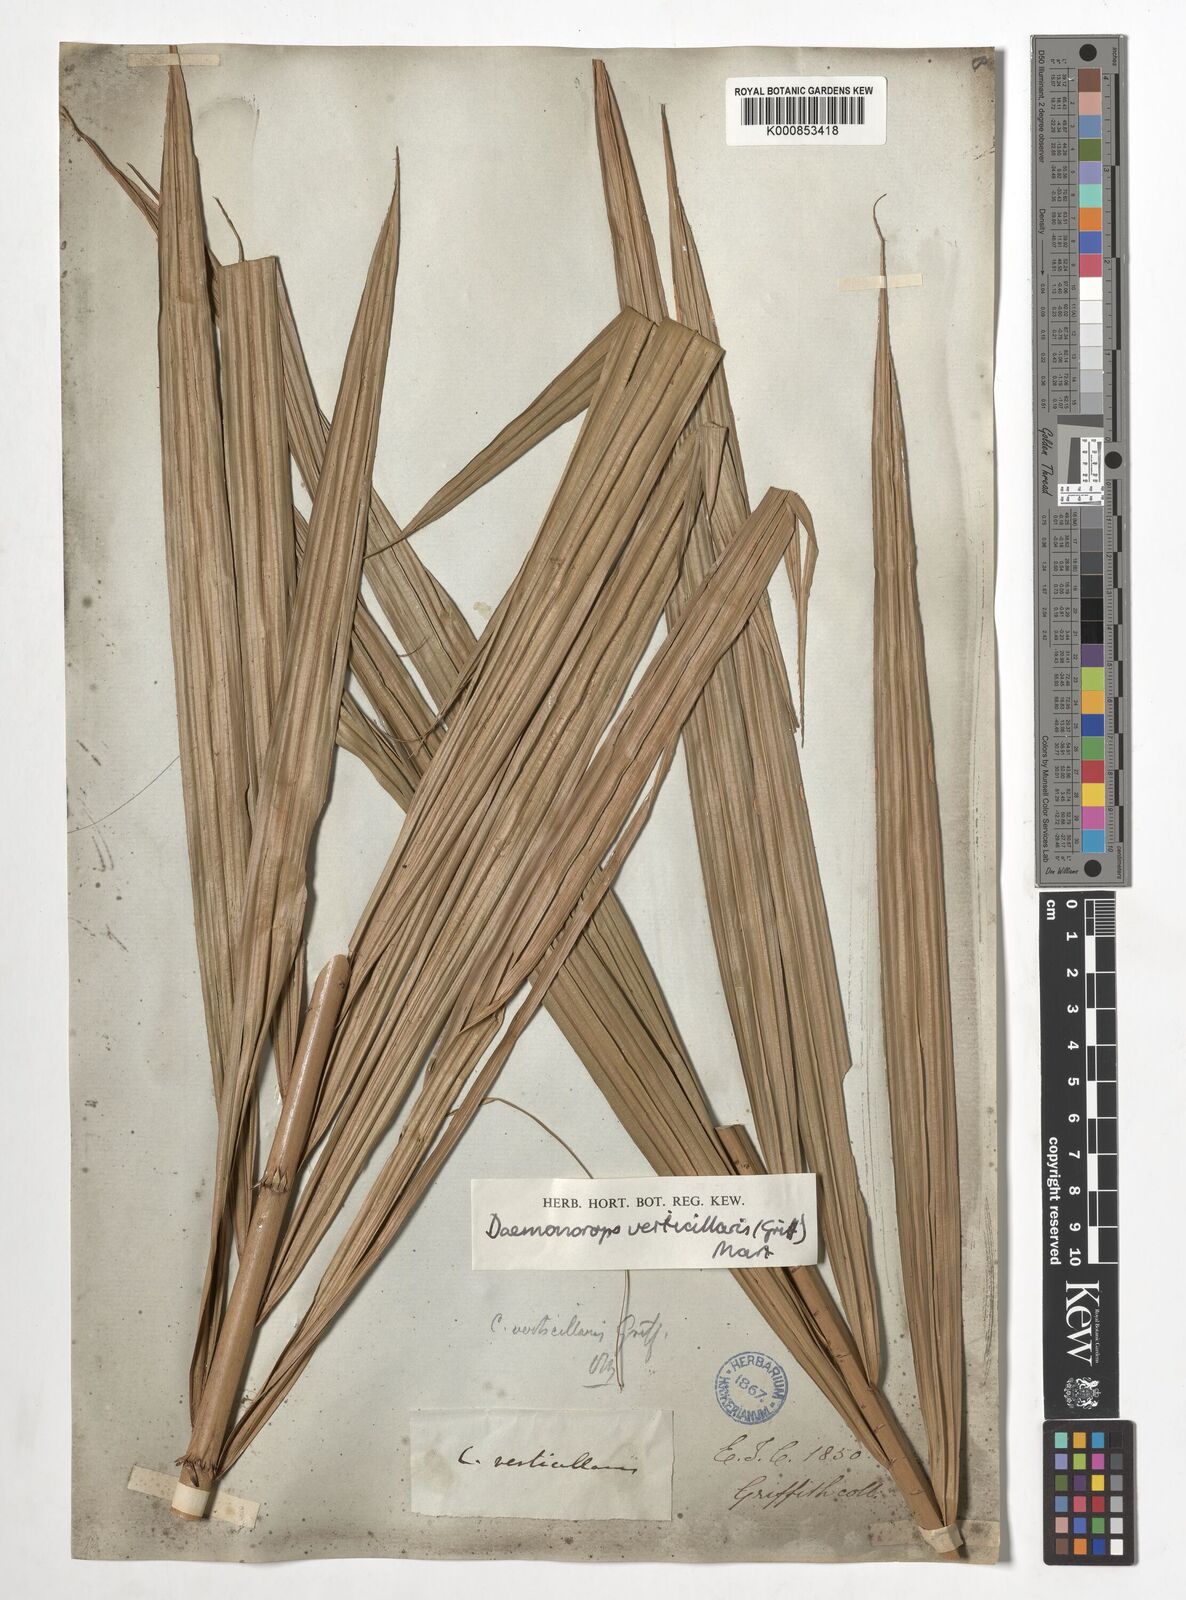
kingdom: Plantae
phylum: Tracheophyta
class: Liliopsida
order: Arecales
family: Arecaceae
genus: Calamus
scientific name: Calamus verticillaris
